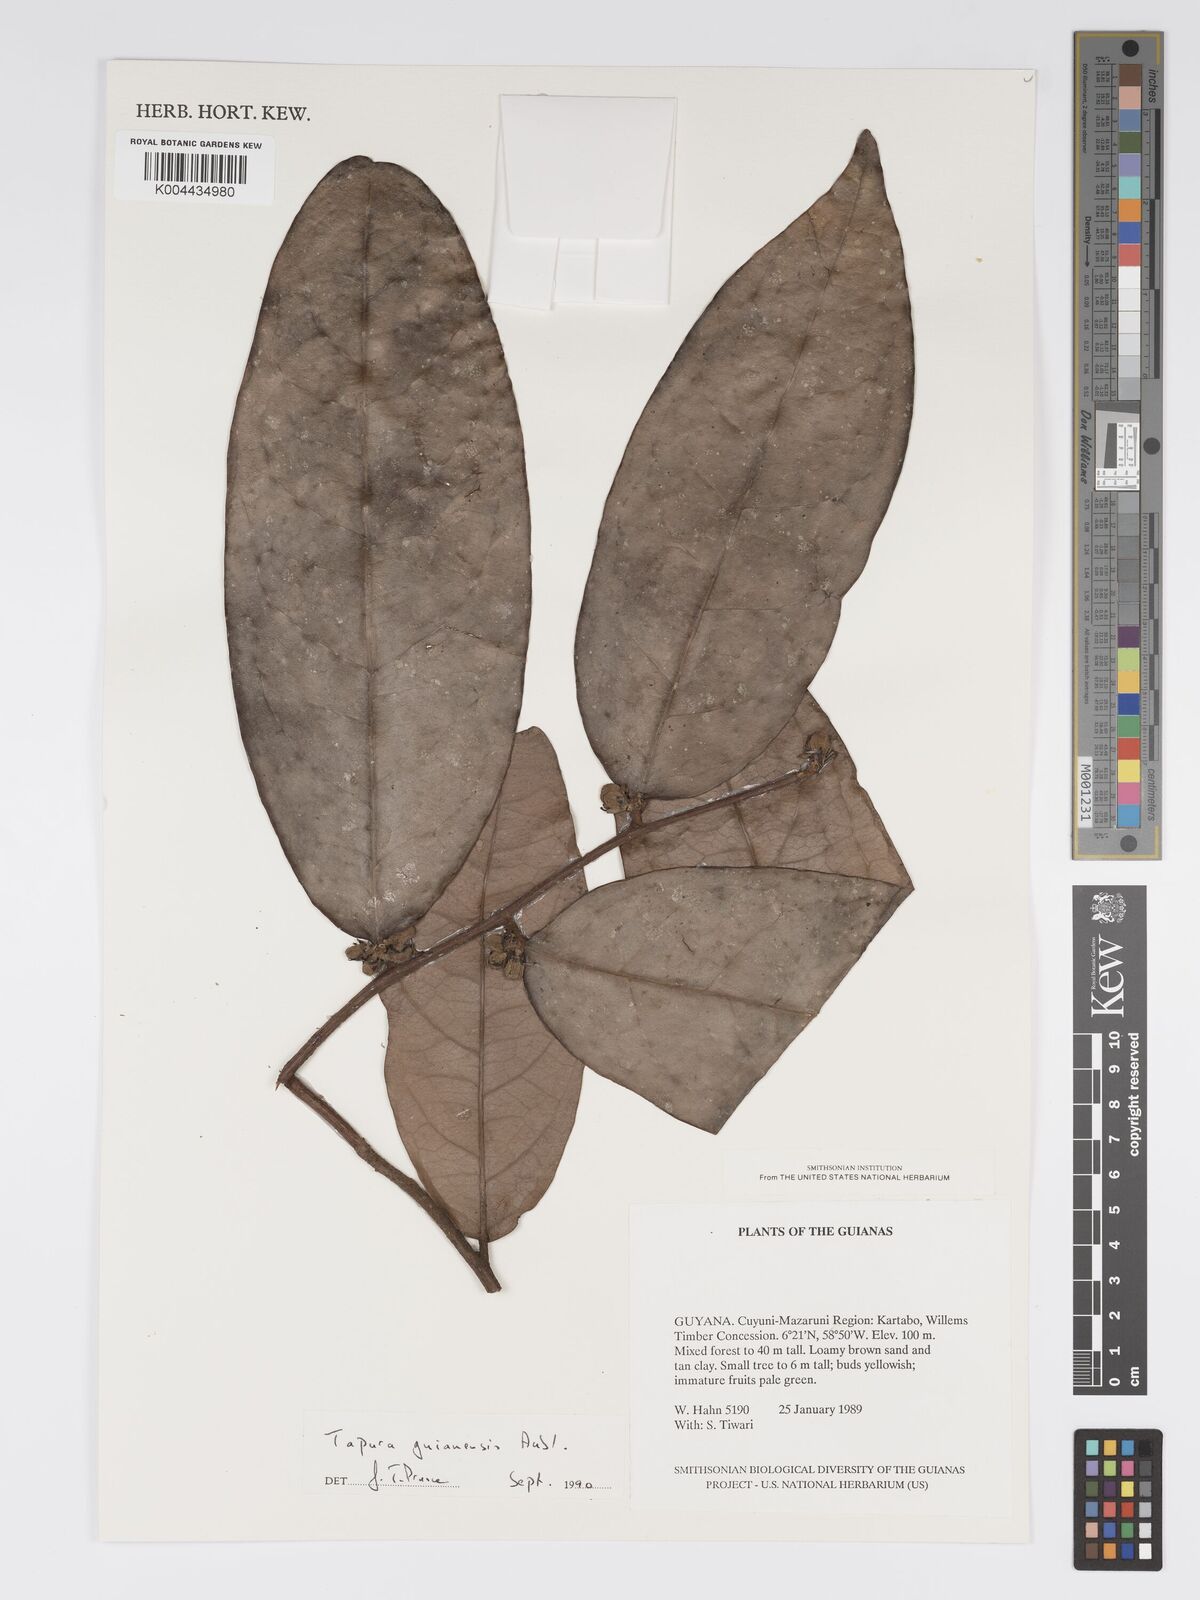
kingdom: Plantae
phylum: Tracheophyta
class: Magnoliopsida
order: Malpighiales
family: Dichapetalaceae
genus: Tapura
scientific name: Tapura guianensis
